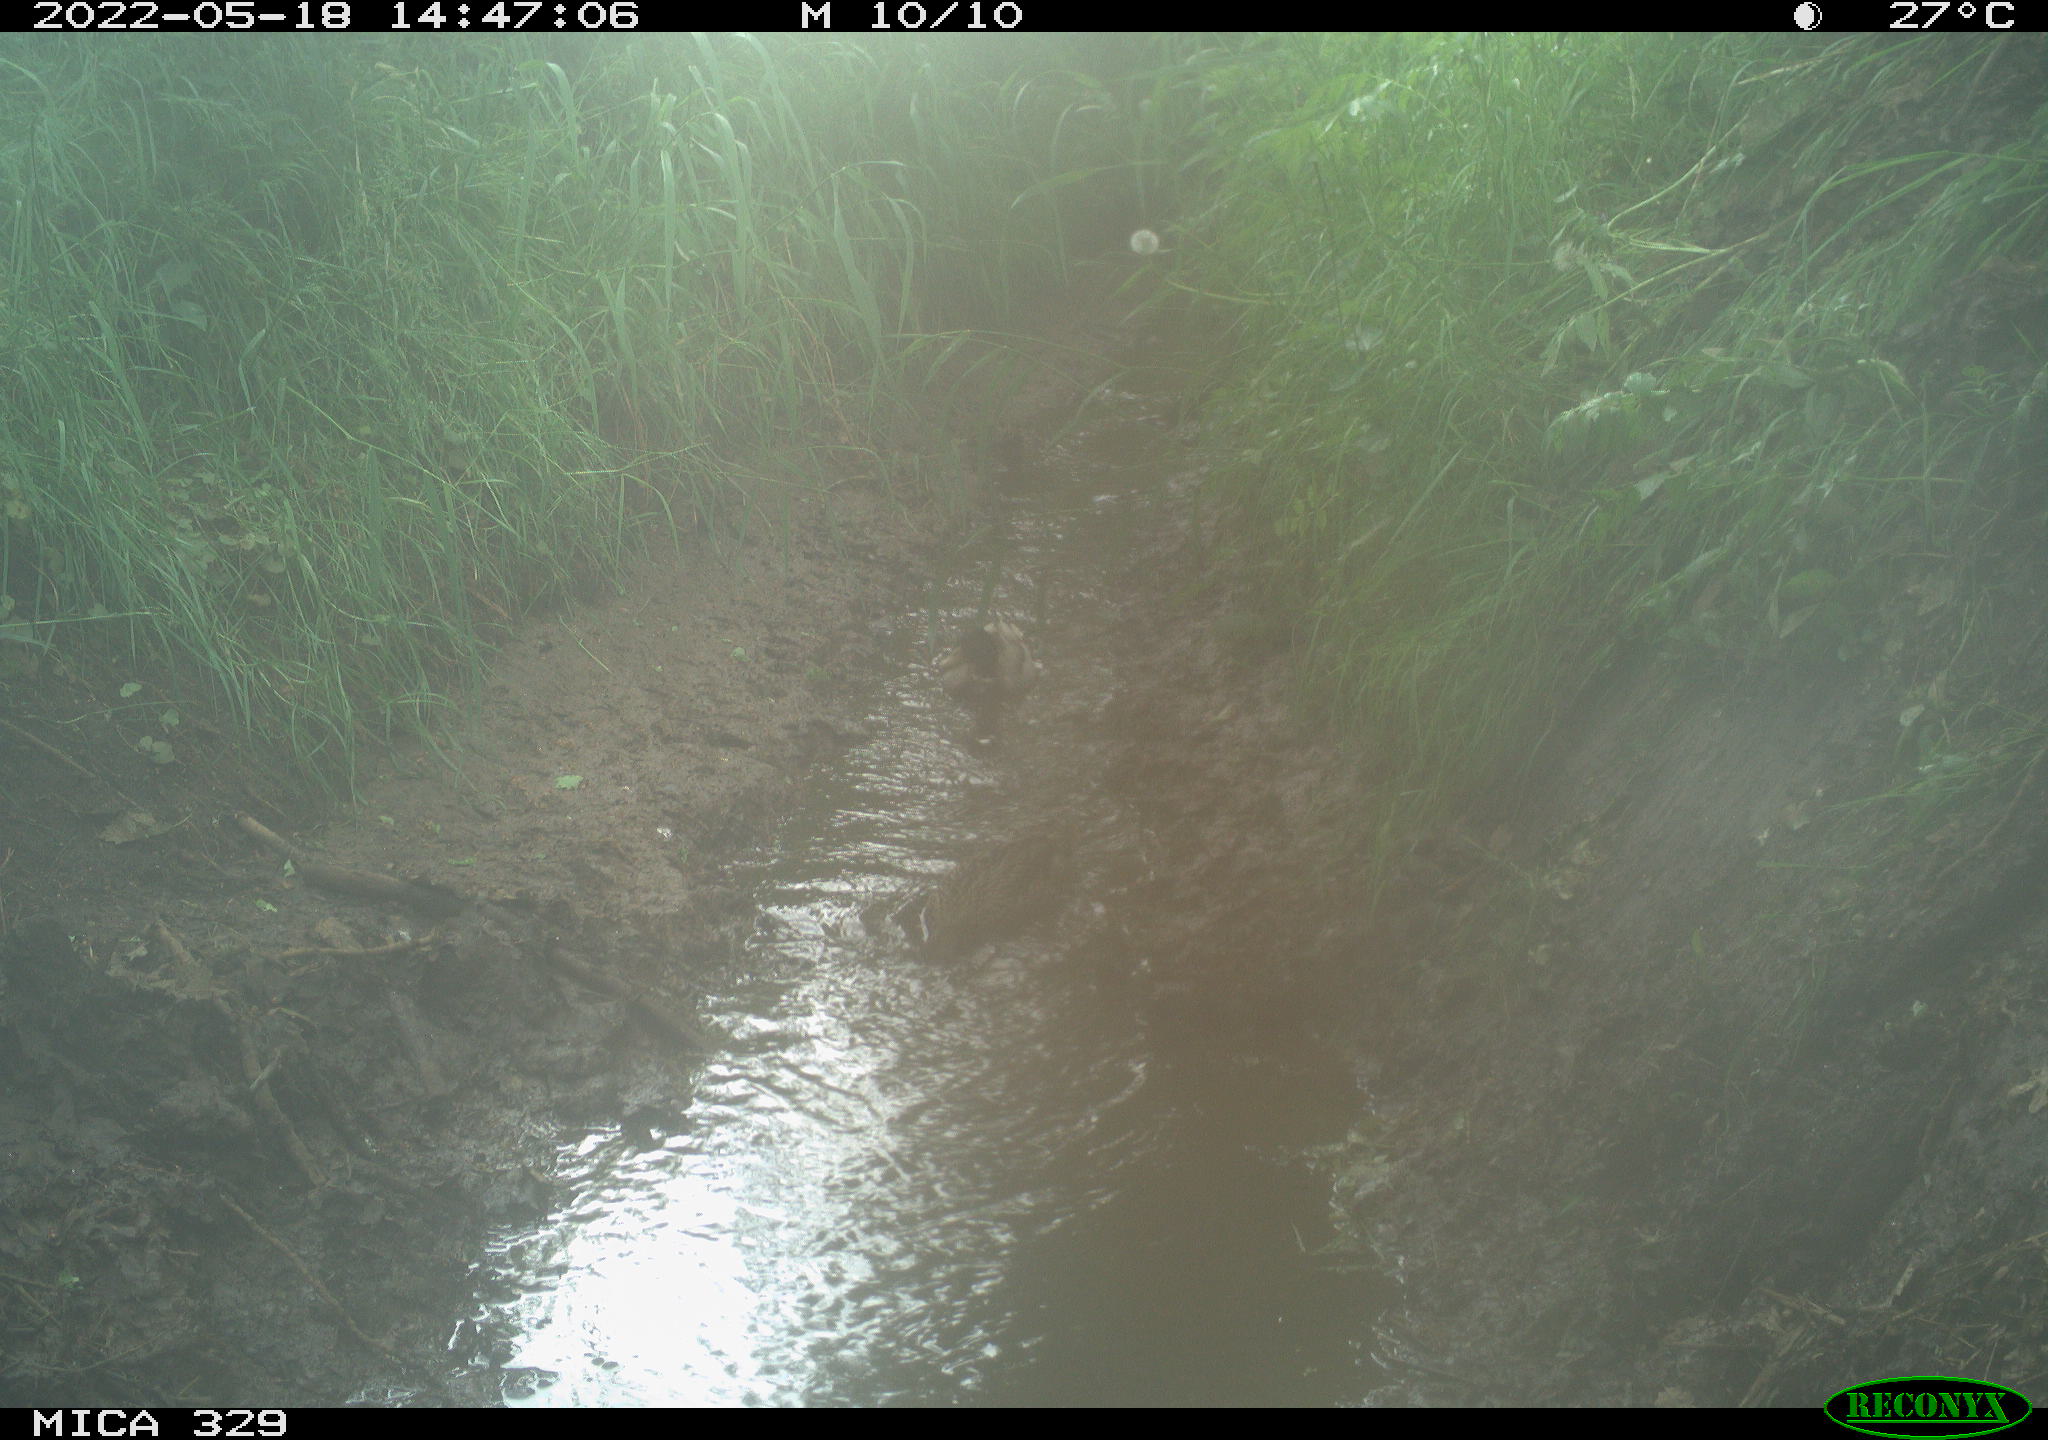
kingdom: Animalia
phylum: Chordata
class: Aves
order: Anseriformes
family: Anatidae
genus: Anas
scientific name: Anas platyrhynchos
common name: Mallard
